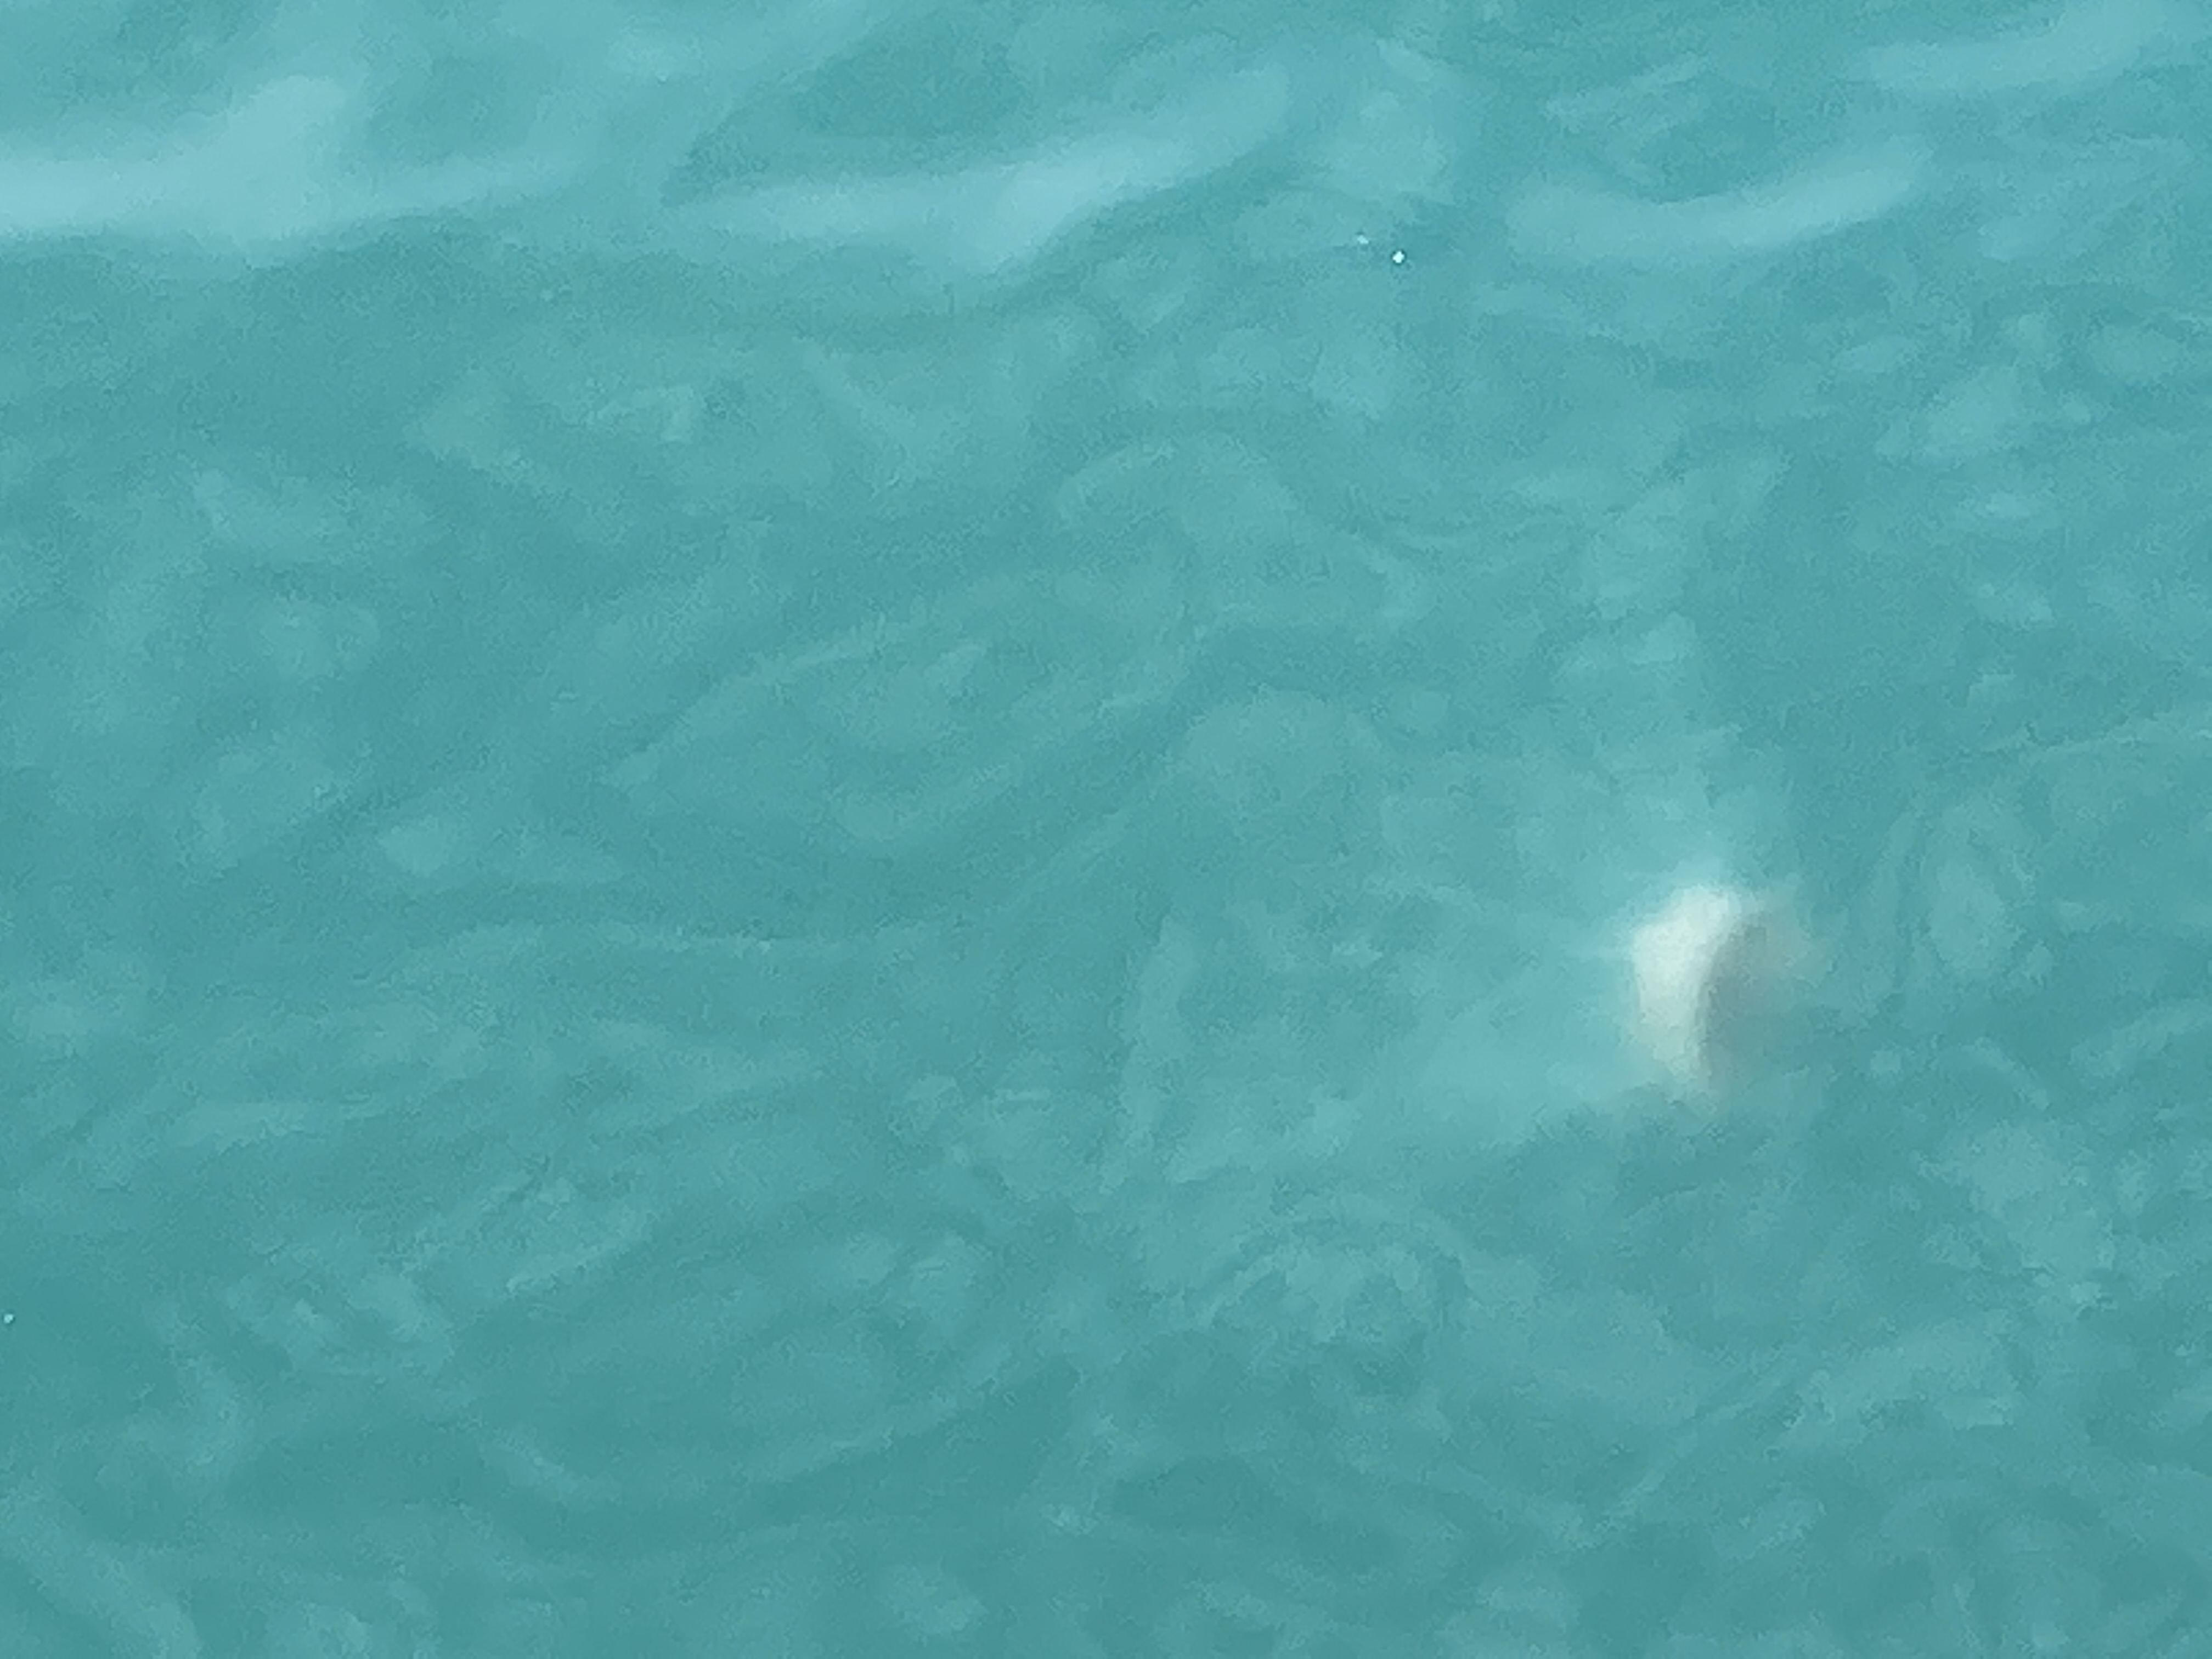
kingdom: Animalia
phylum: Cnidaria
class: Scyphozoa
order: Semaeostomeae
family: Cyaneidae
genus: Cyanea
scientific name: Cyanea nozakii
